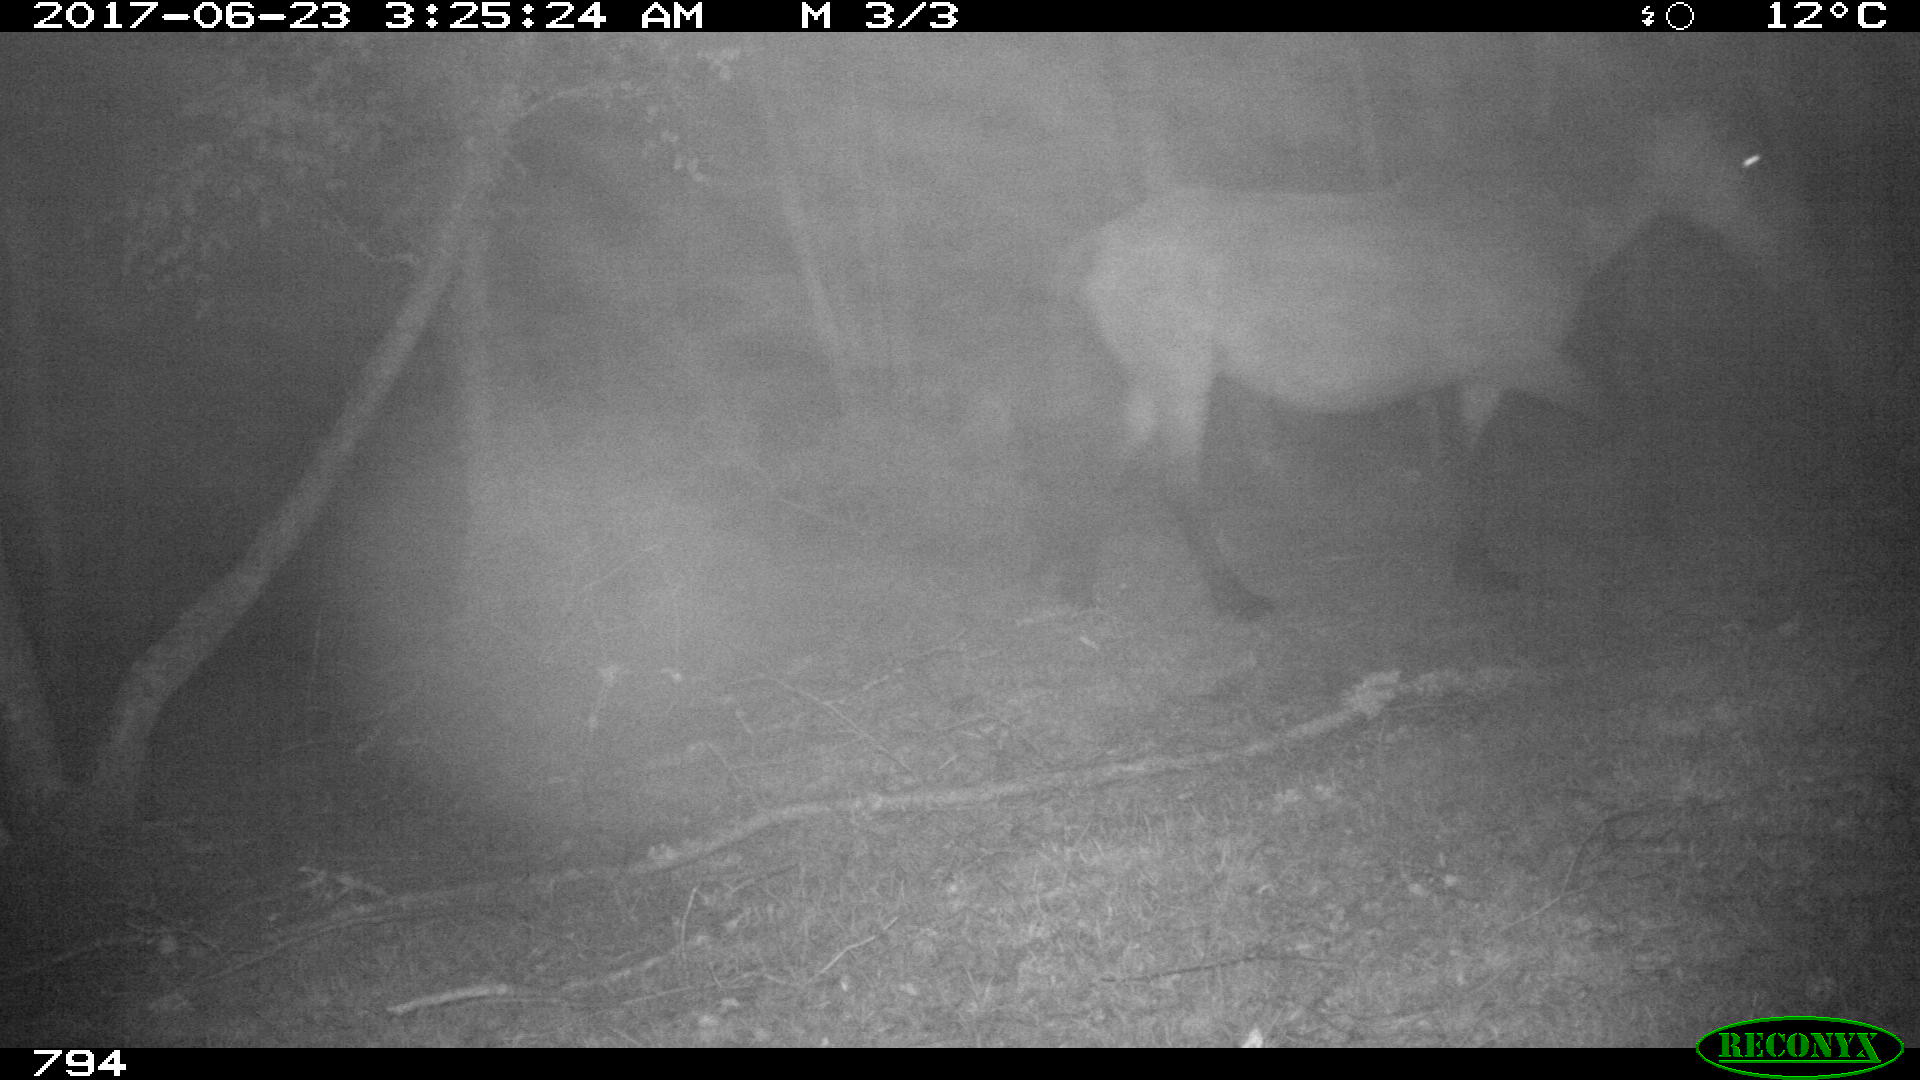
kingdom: Animalia
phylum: Chordata
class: Mammalia
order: Perissodactyla
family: Equidae
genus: Equus
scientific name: Equus caballus
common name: Horse
